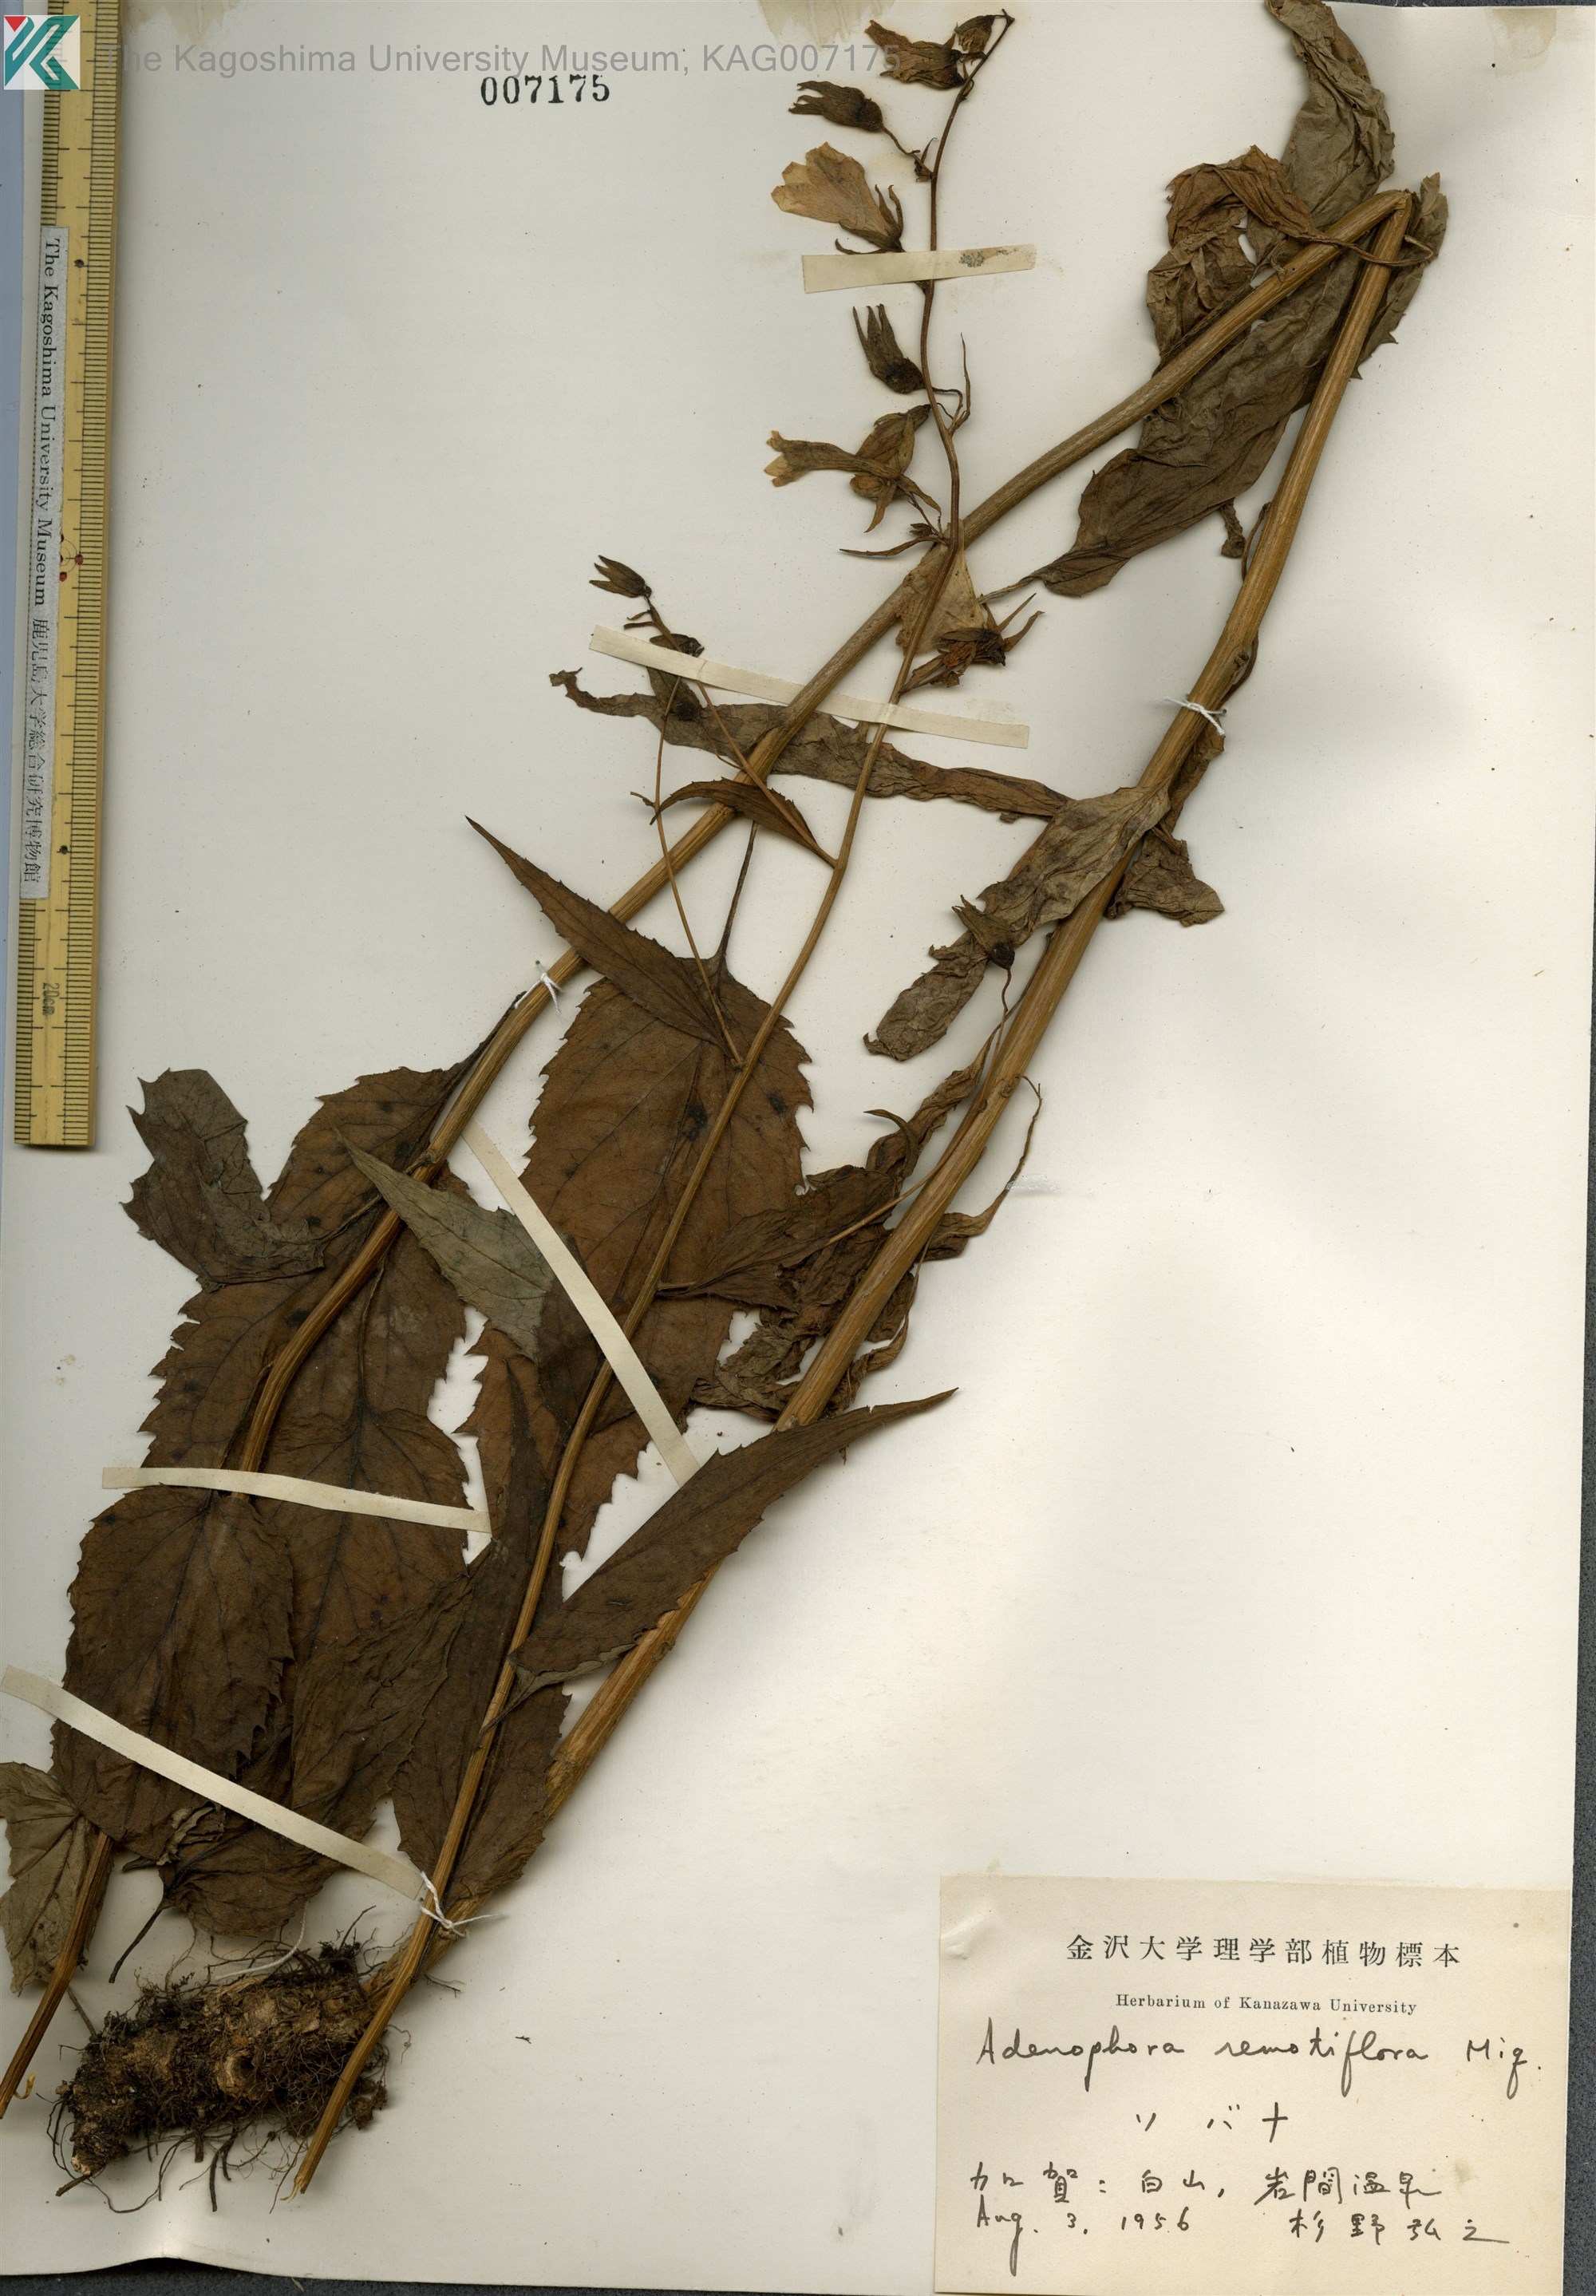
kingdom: Plantae
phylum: Tracheophyta
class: Magnoliopsida
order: Asterales
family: Campanulaceae
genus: Adenophora
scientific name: Adenophora remotiflora
